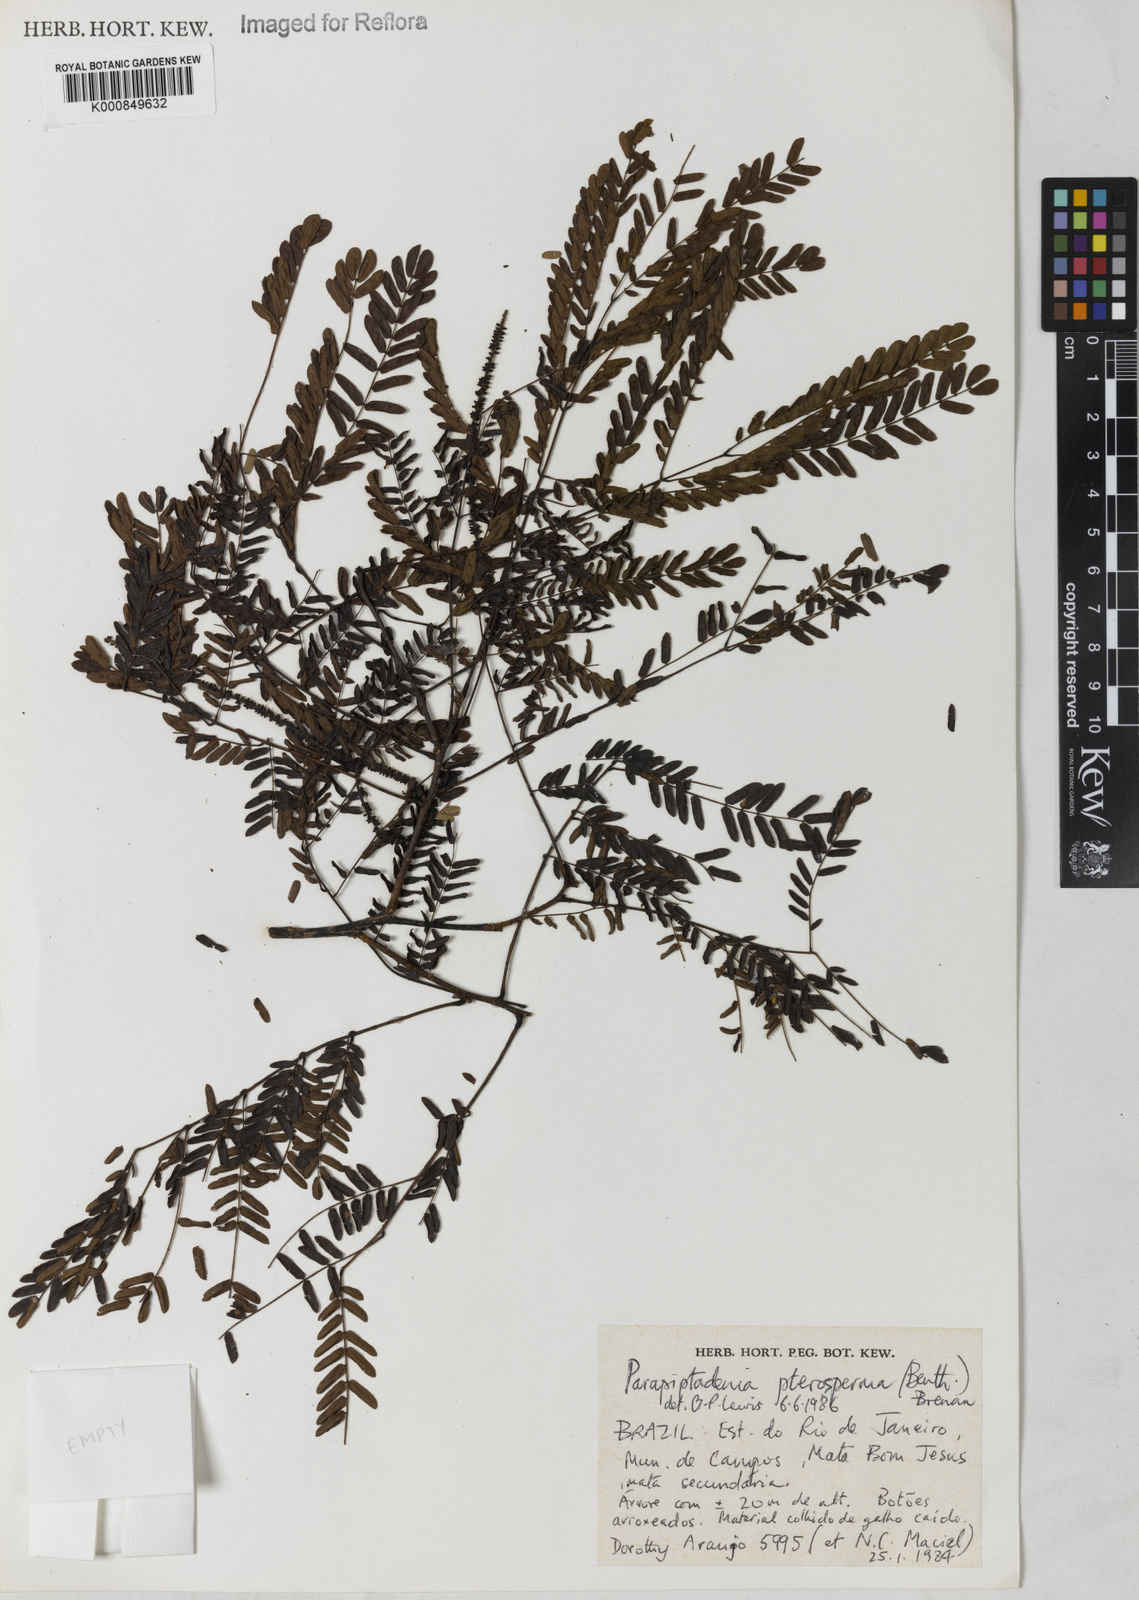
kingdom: Plantae
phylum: Tracheophyta
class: Magnoliopsida
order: Fabales
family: Fabaceae
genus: Parapiptadenia
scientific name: Parapiptadenia pterosperma
